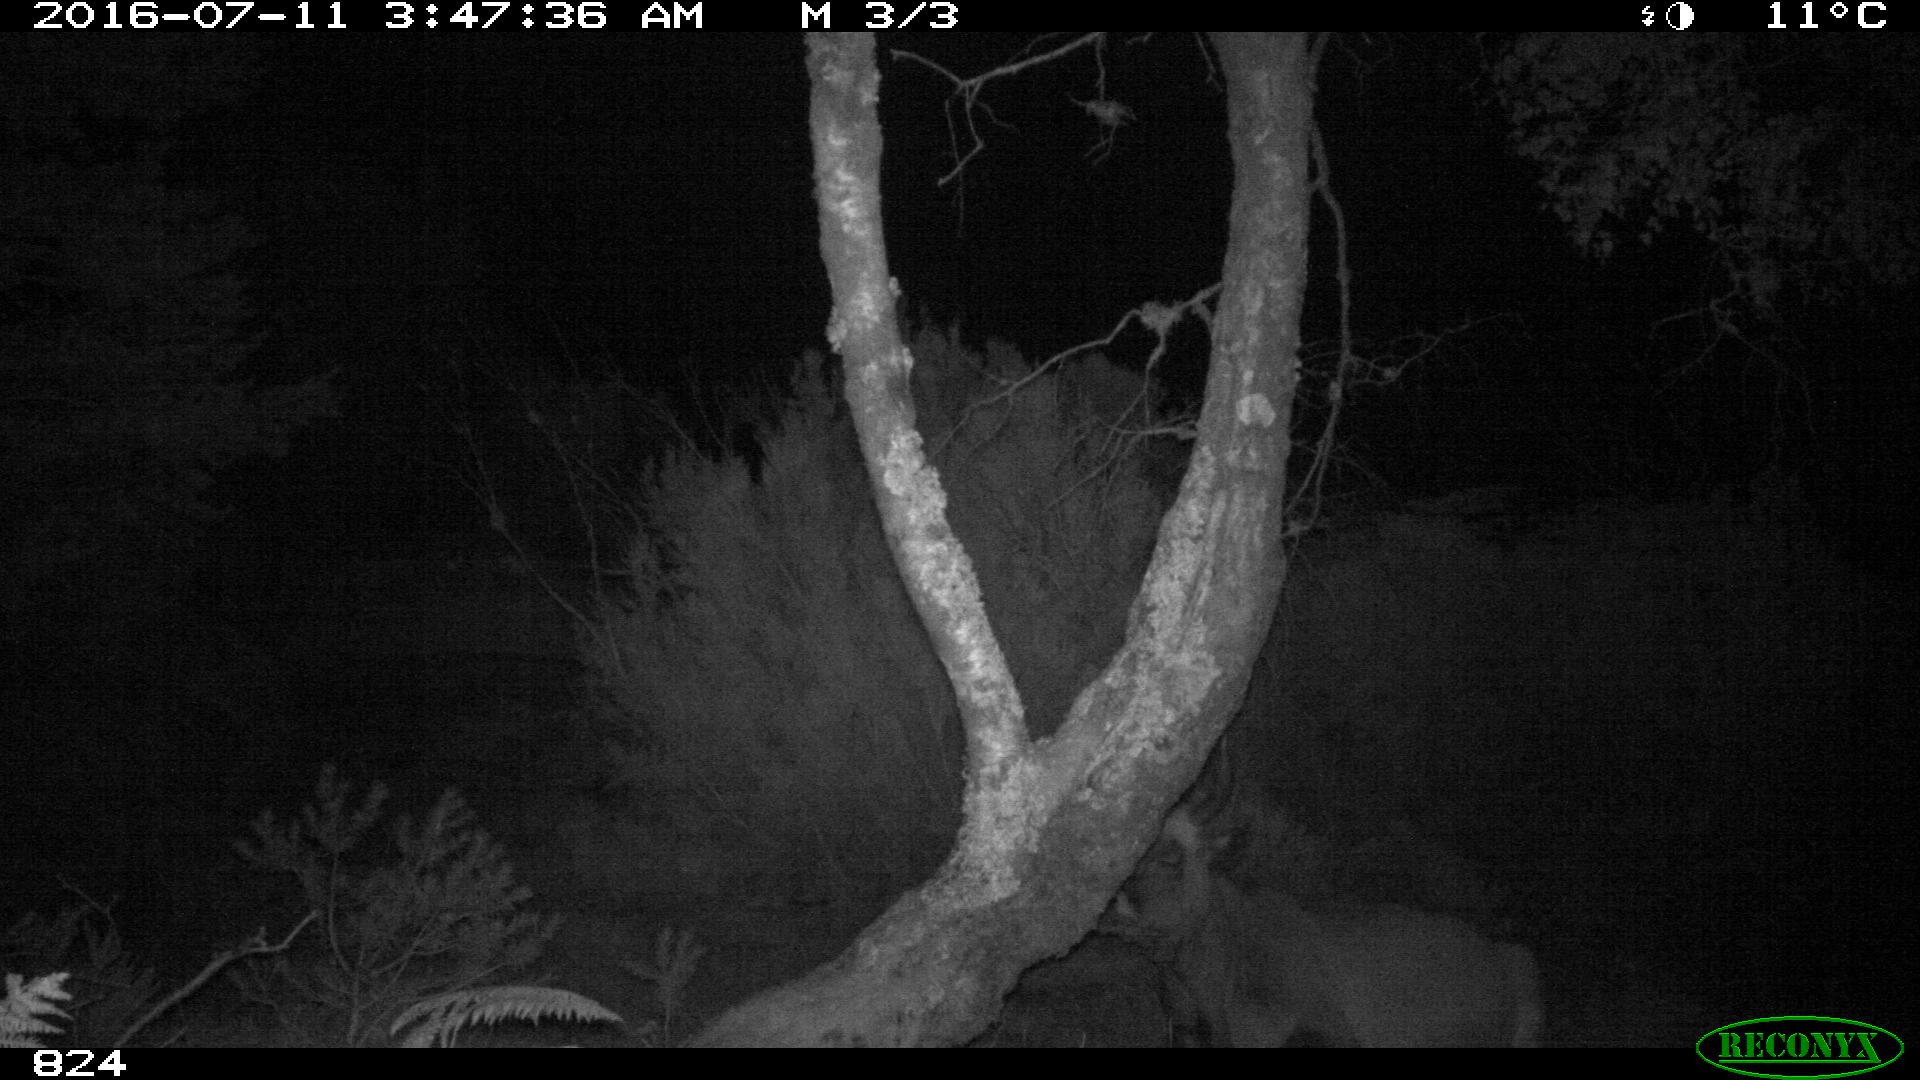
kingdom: Animalia
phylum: Chordata
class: Mammalia
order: Artiodactyla
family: Bovidae
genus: Bos
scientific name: Bos taurus
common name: Domesticated cattle
